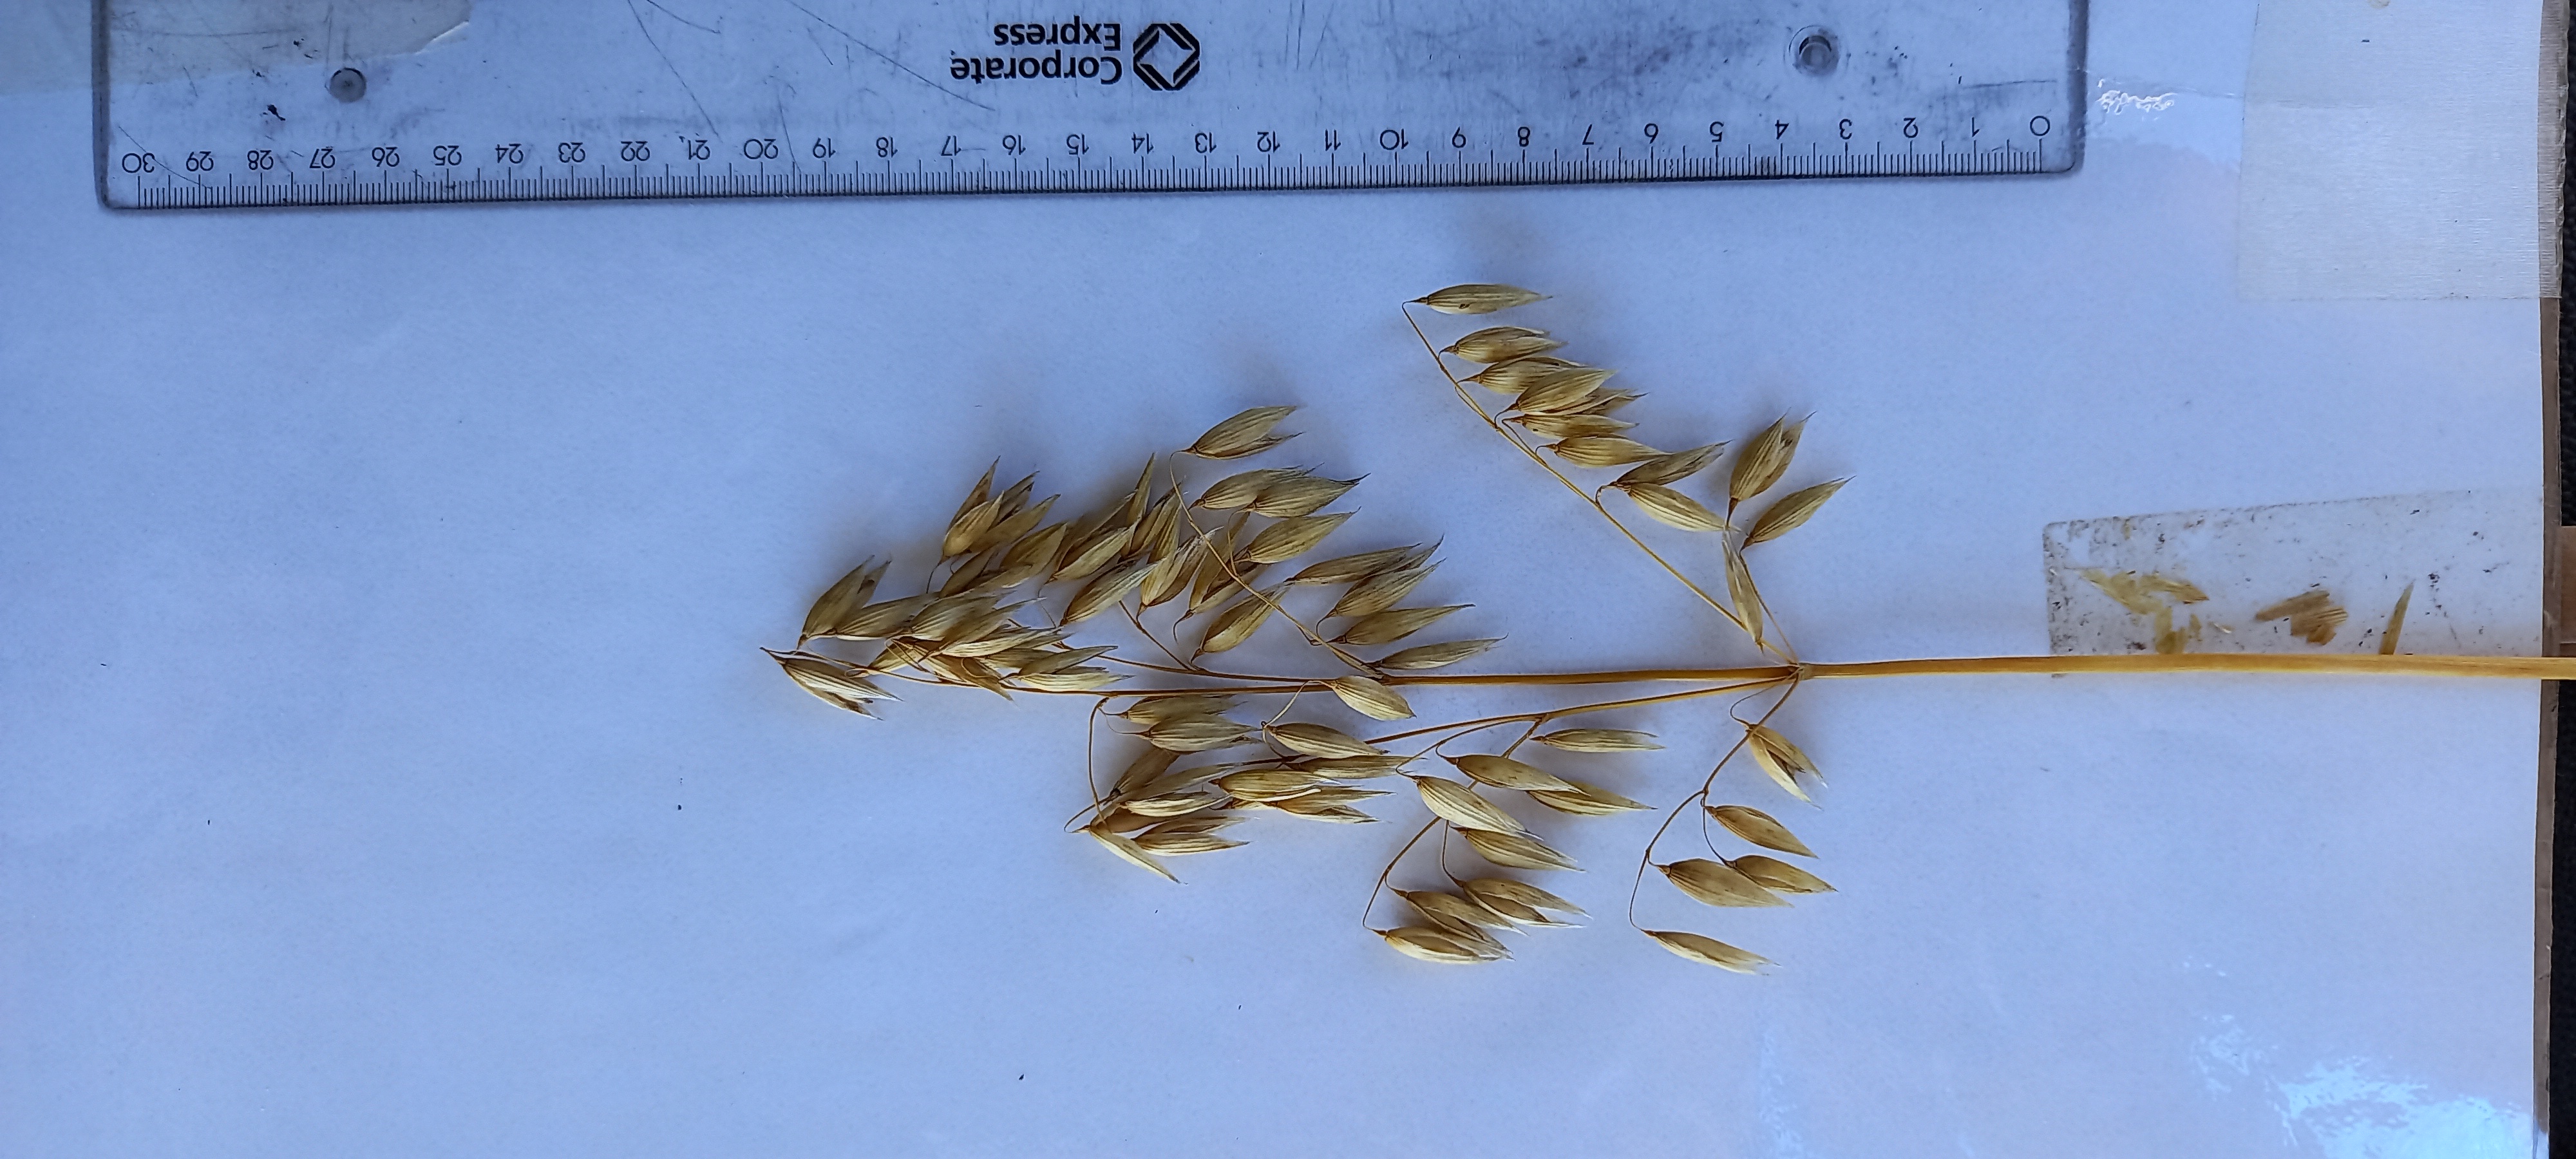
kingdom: Plantae
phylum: Tracheophyta
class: Liliopsida
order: Poales
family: Poaceae
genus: Avena
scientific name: Avena sativa
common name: Oat
